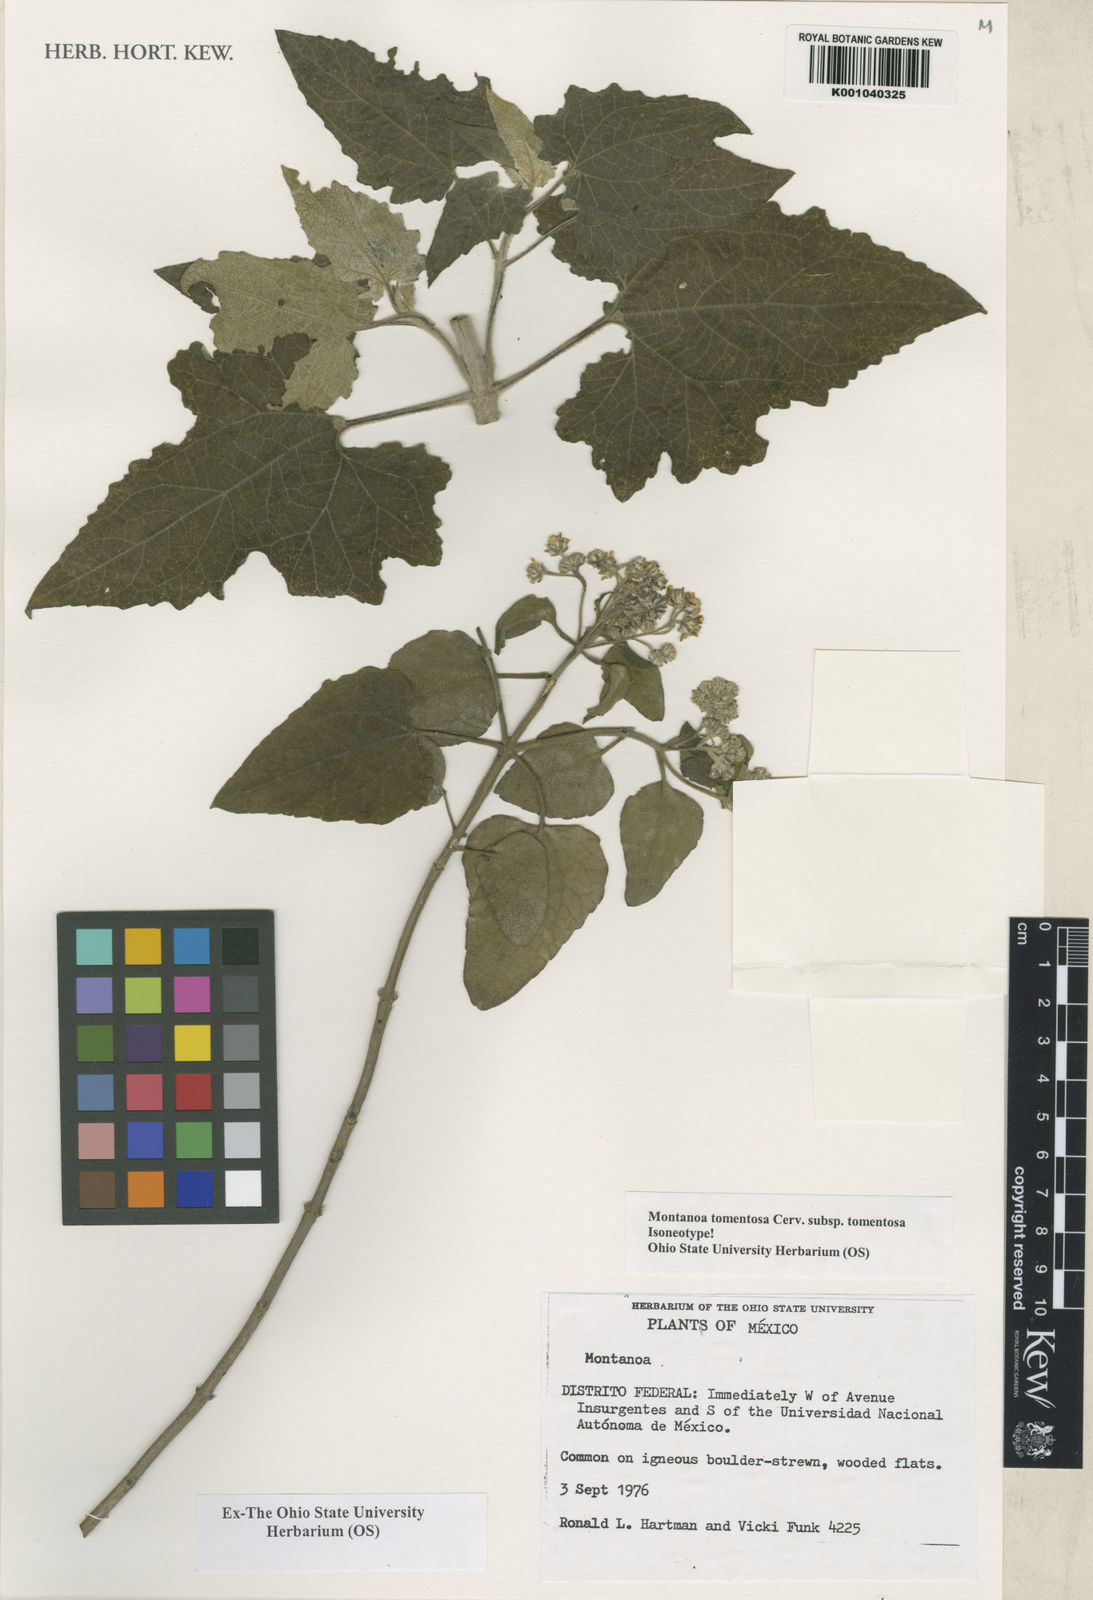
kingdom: Plantae
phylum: Tracheophyta
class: Magnoliopsida
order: Asterales
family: Asteraceae
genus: Montanoa
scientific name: Montanoa tomentosa
